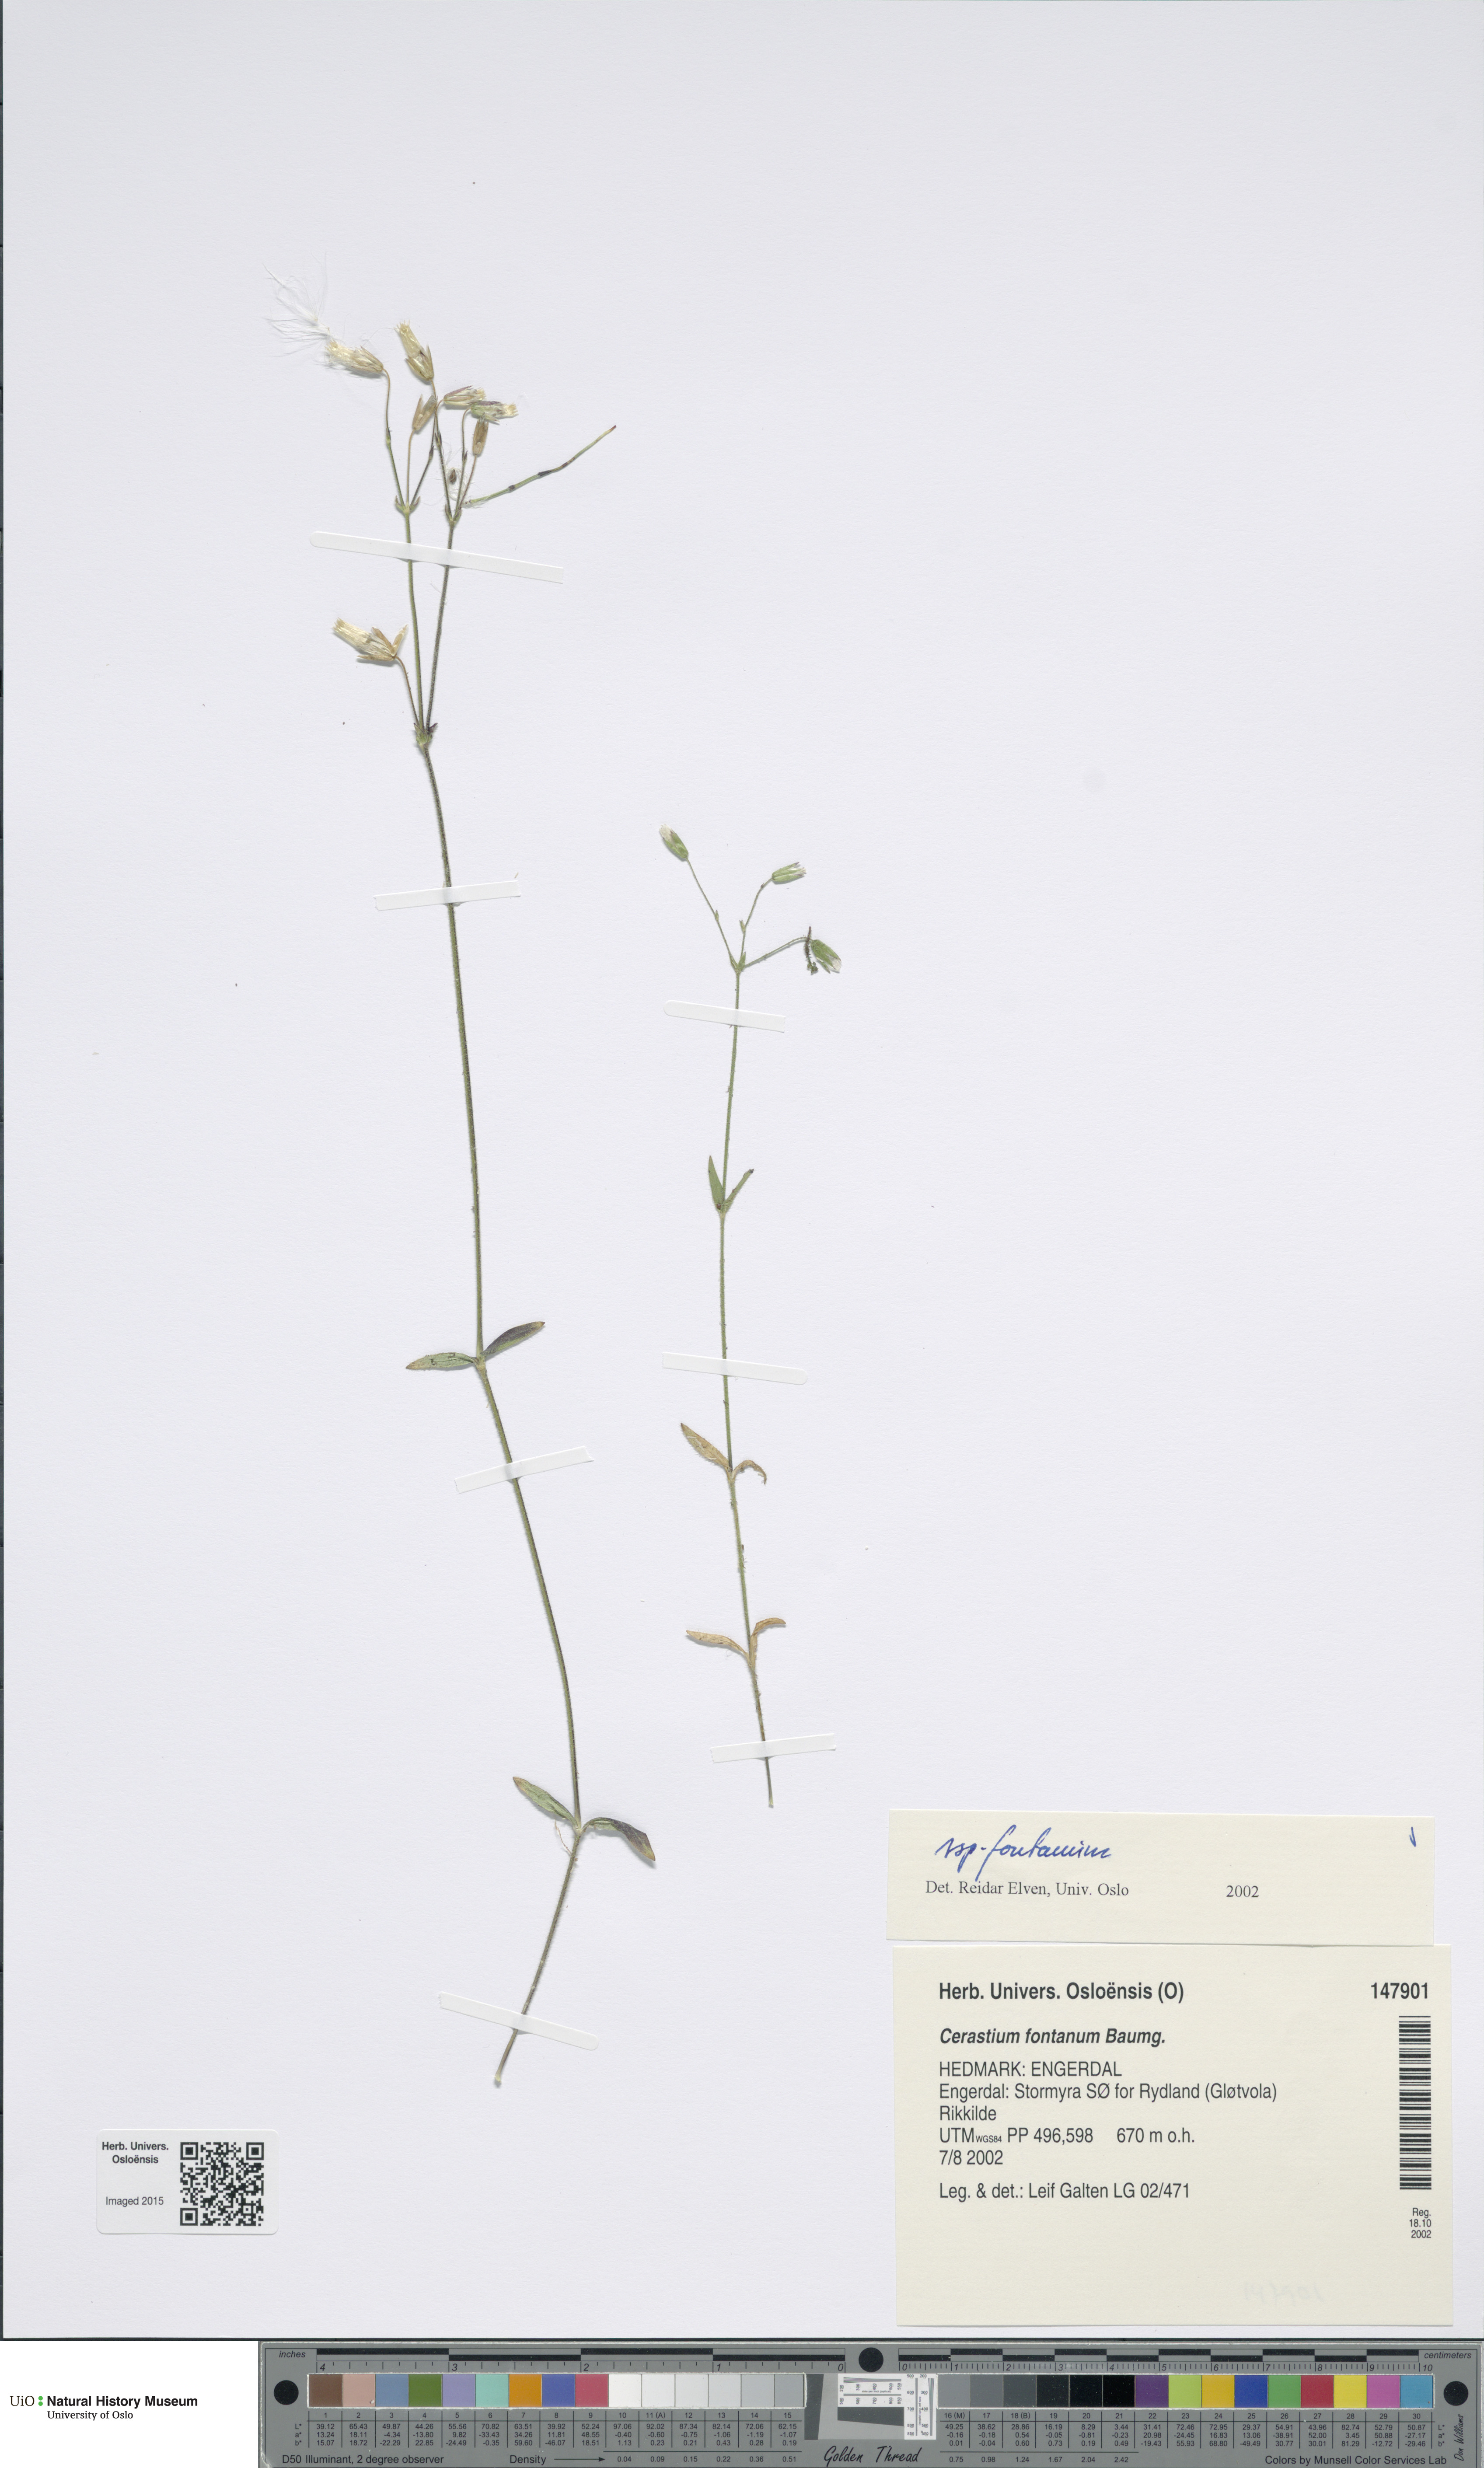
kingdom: Plantae
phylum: Tracheophyta
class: Magnoliopsida
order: Caryophyllales
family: Caryophyllaceae
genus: Cerastium
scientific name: Cerastium fontanum
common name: Common mouse-ear
